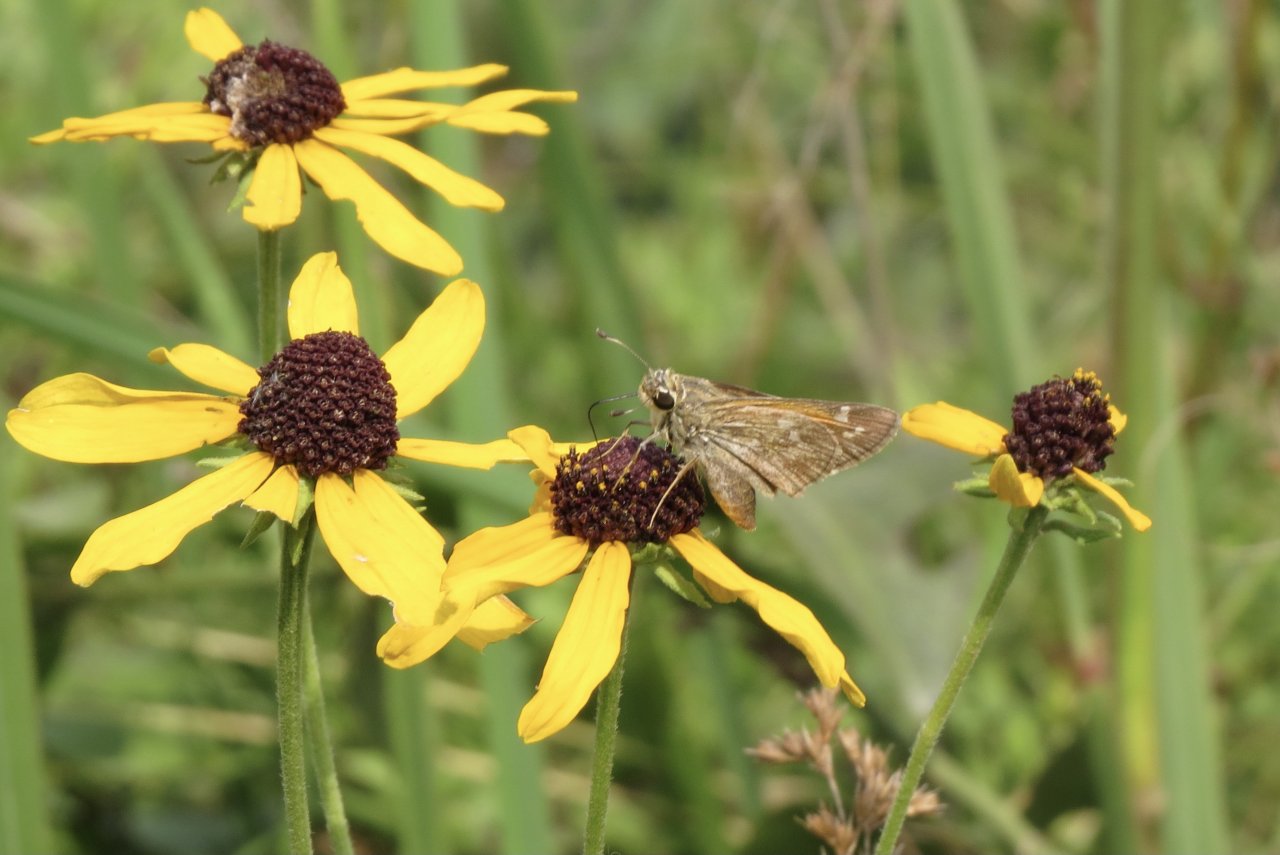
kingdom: Animalia
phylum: Arthropoda
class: Insecta
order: Lepidoptera
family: Hesperiidae
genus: Atalopedes
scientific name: Atalopedes campestris
